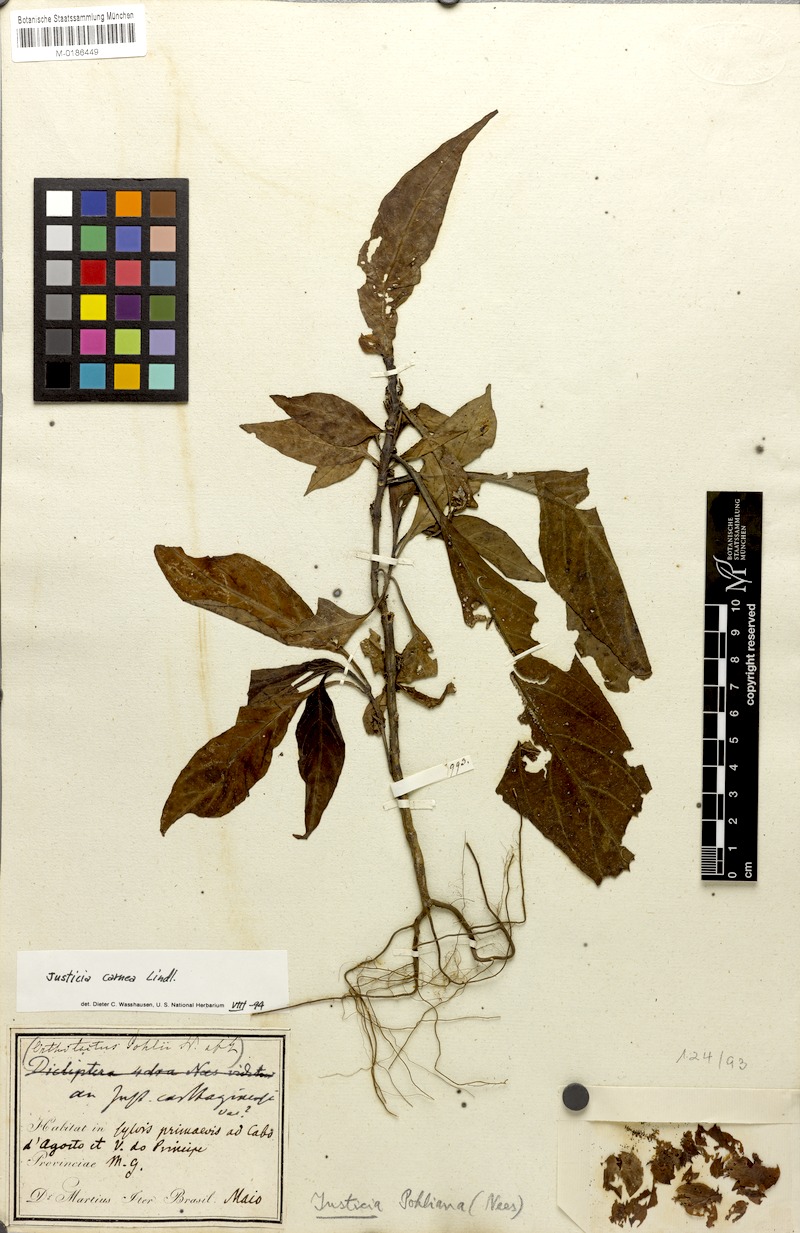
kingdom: Plantae
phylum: Tracheophyta
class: Magnoliopsida
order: Lamiales
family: Acanthaceae
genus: Justicia
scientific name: Justicia carnea
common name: Brazilian-plume
